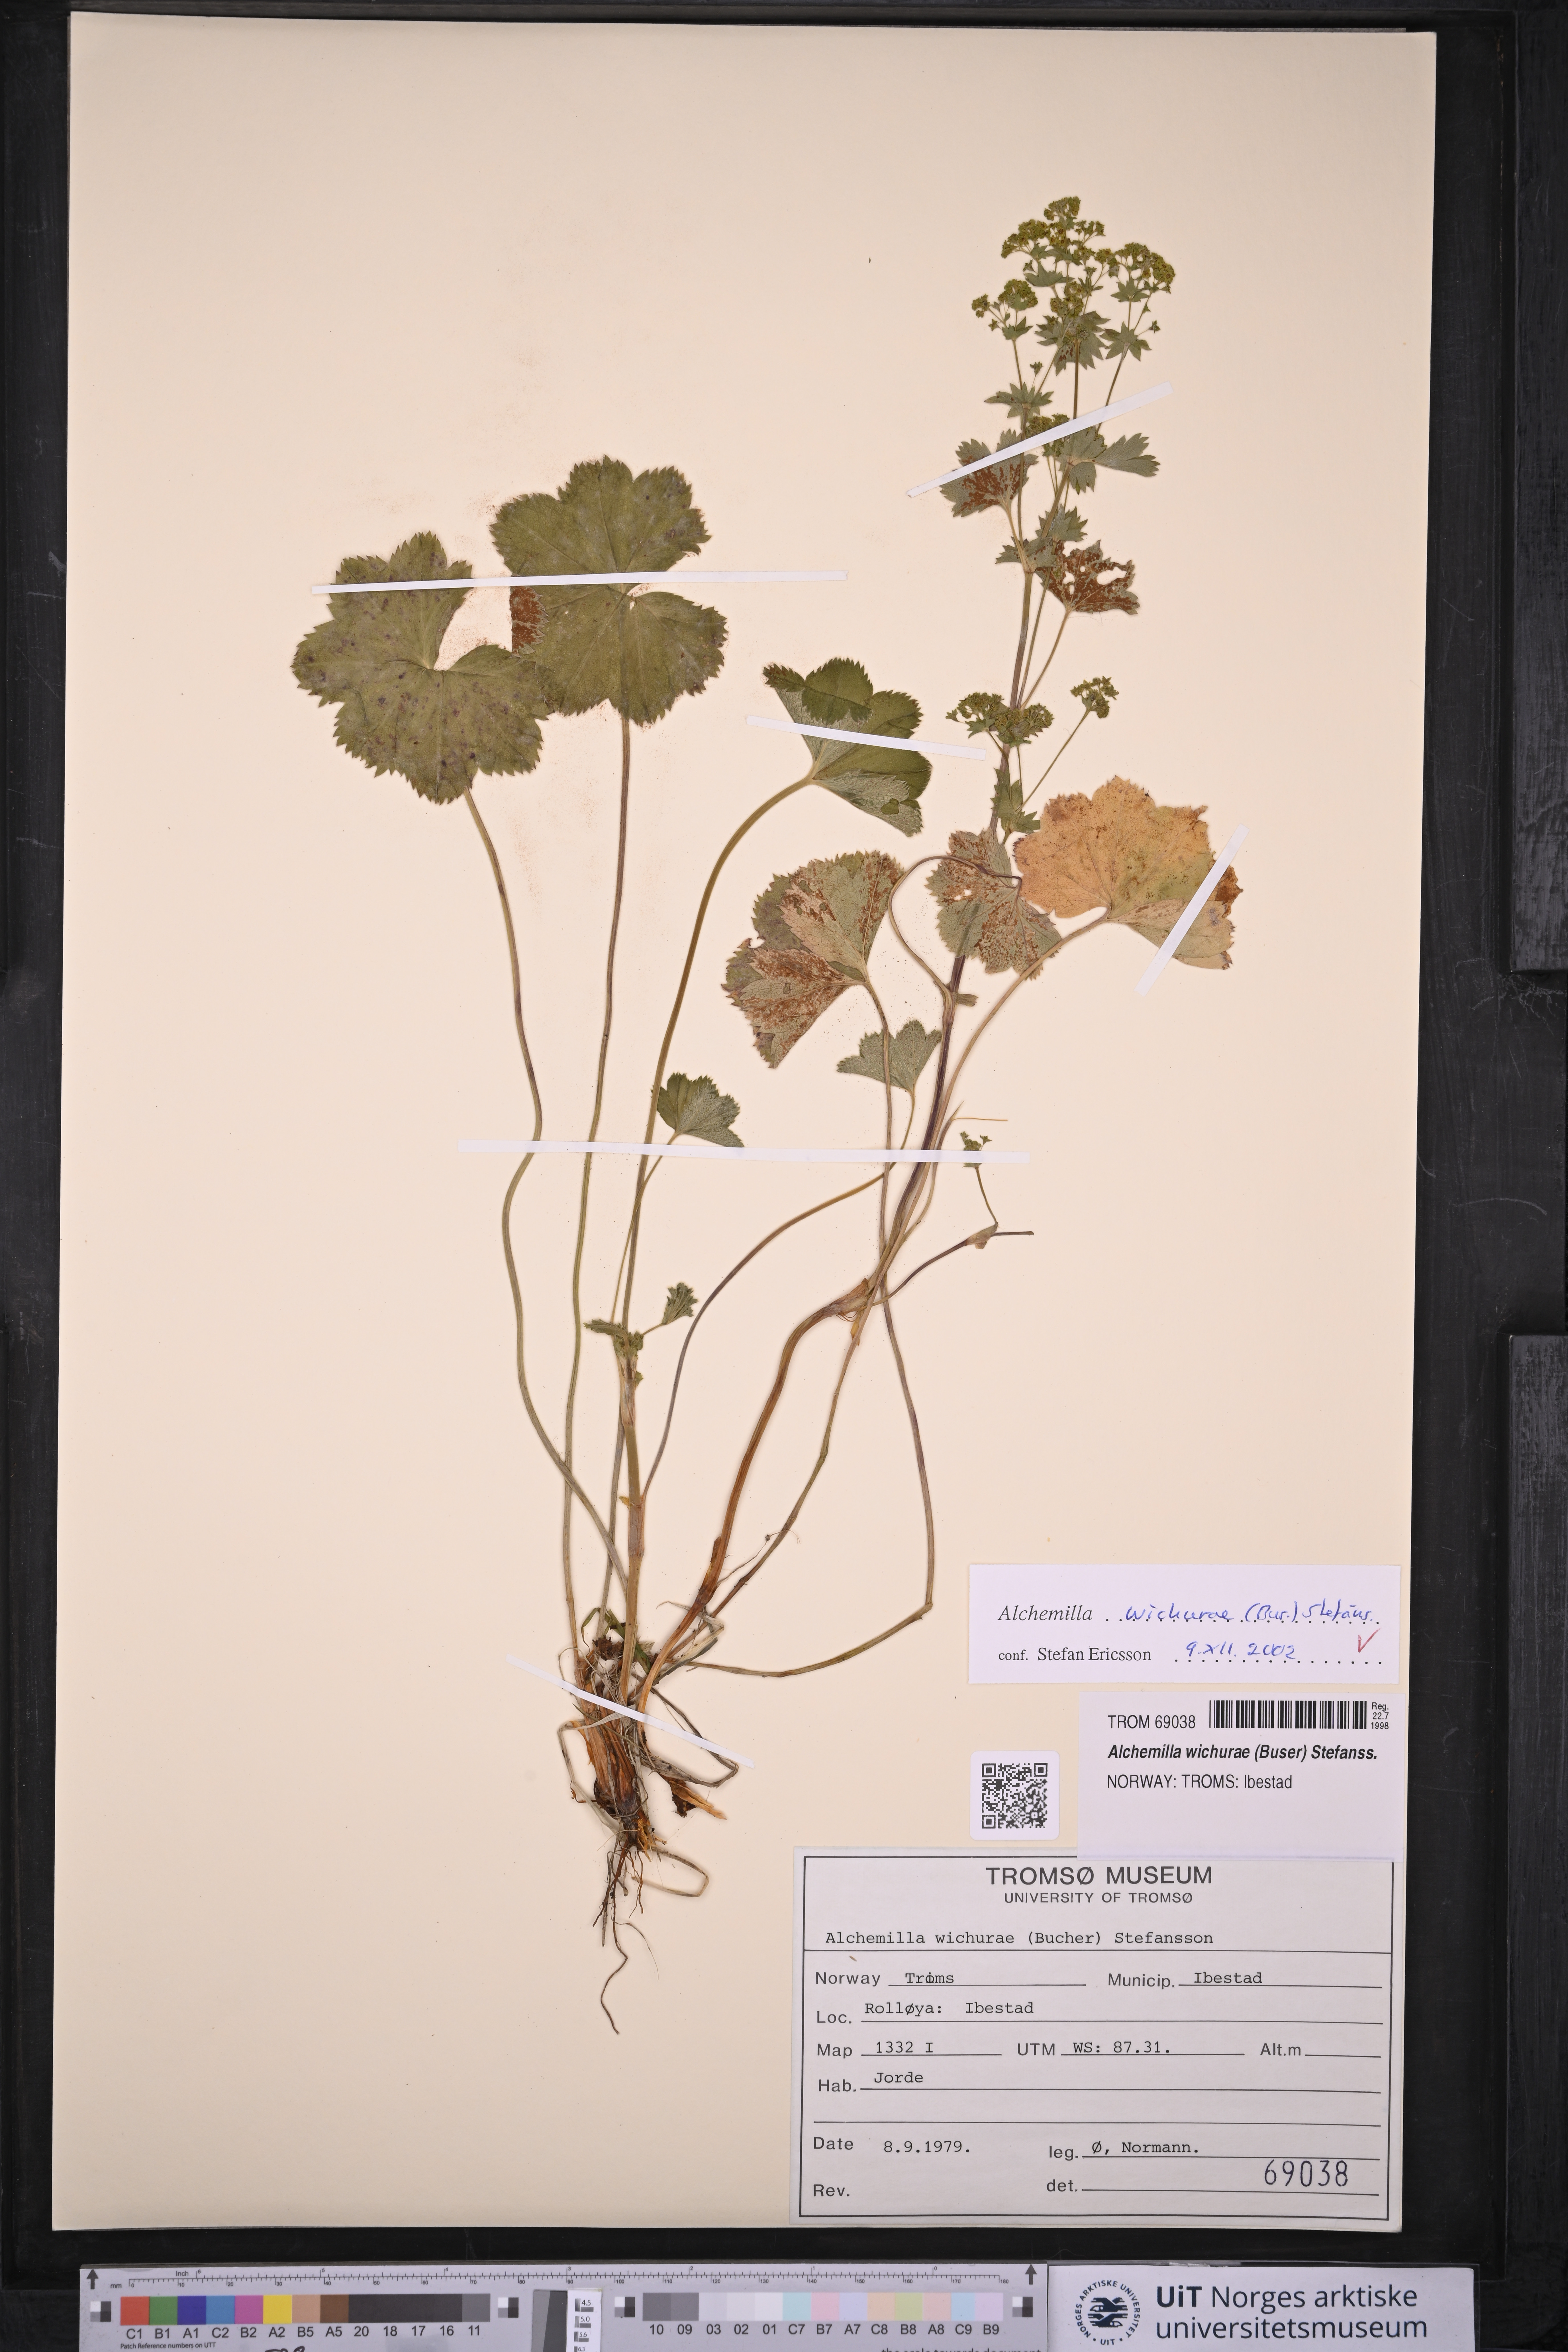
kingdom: Plantae
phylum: Tracheophyta
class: Magnoliopsida
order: Rosales
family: Rosaceae
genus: Alchemilla
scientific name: Alchemilla wichurae
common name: Rock lady's mantle
